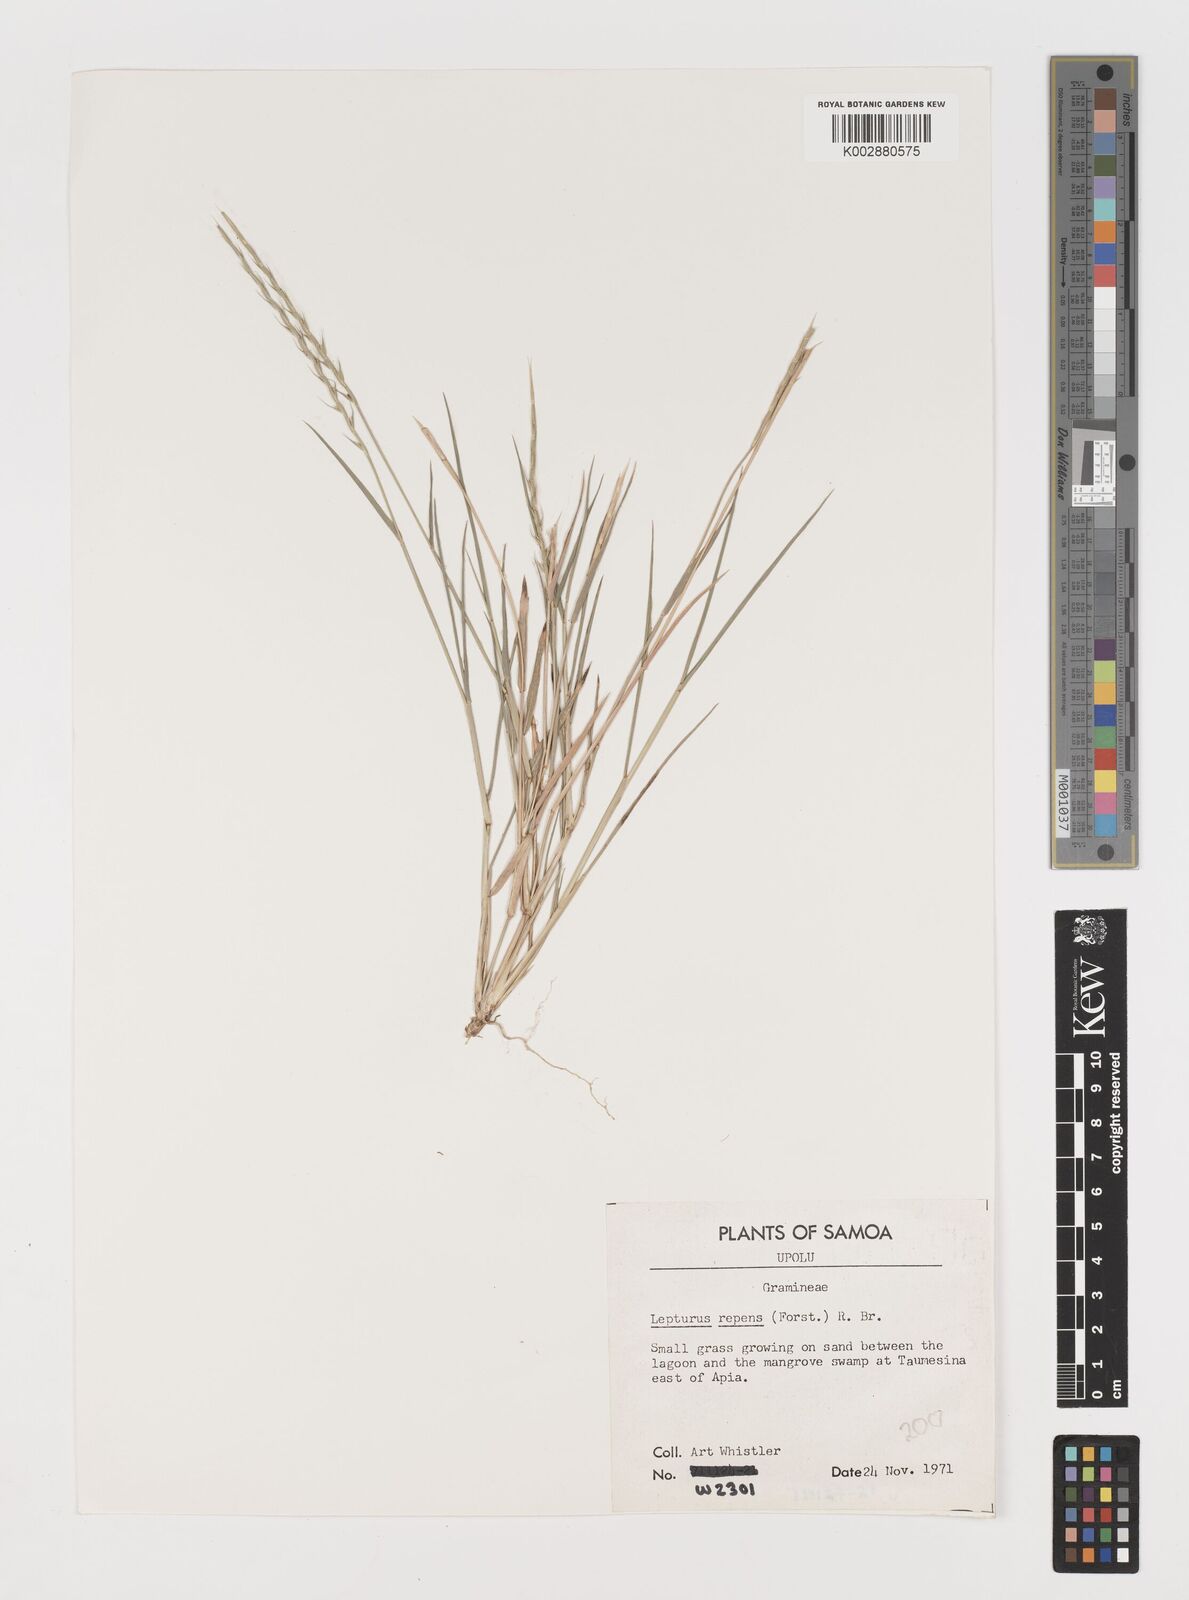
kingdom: Plantae
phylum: Tracheophyta
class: Liliopsida
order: Poales
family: Poaceae
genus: Lepturus
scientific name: Lepturus repens
